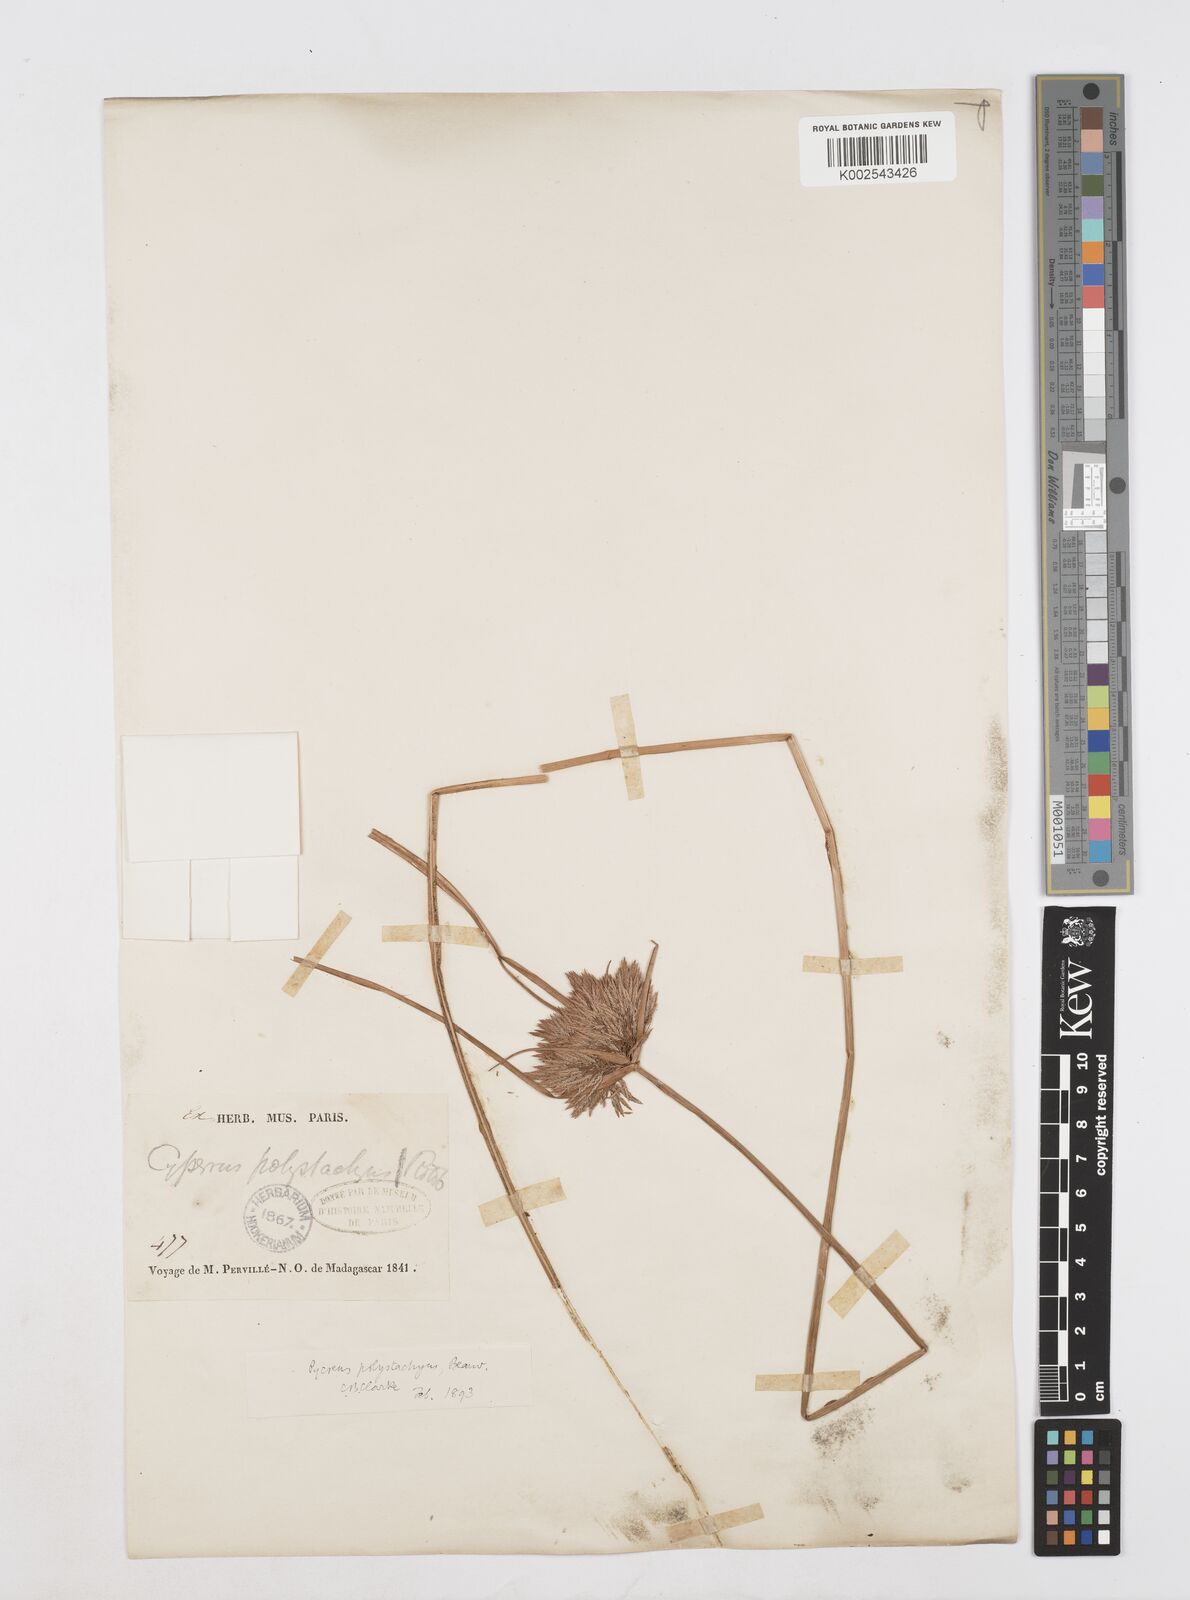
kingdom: Plantae
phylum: Tracheophyta
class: Liliopsida
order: Poales
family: Cyperaceae
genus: Cyperus
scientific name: Cyperus polystachyos
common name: Bunchy flat sedge
